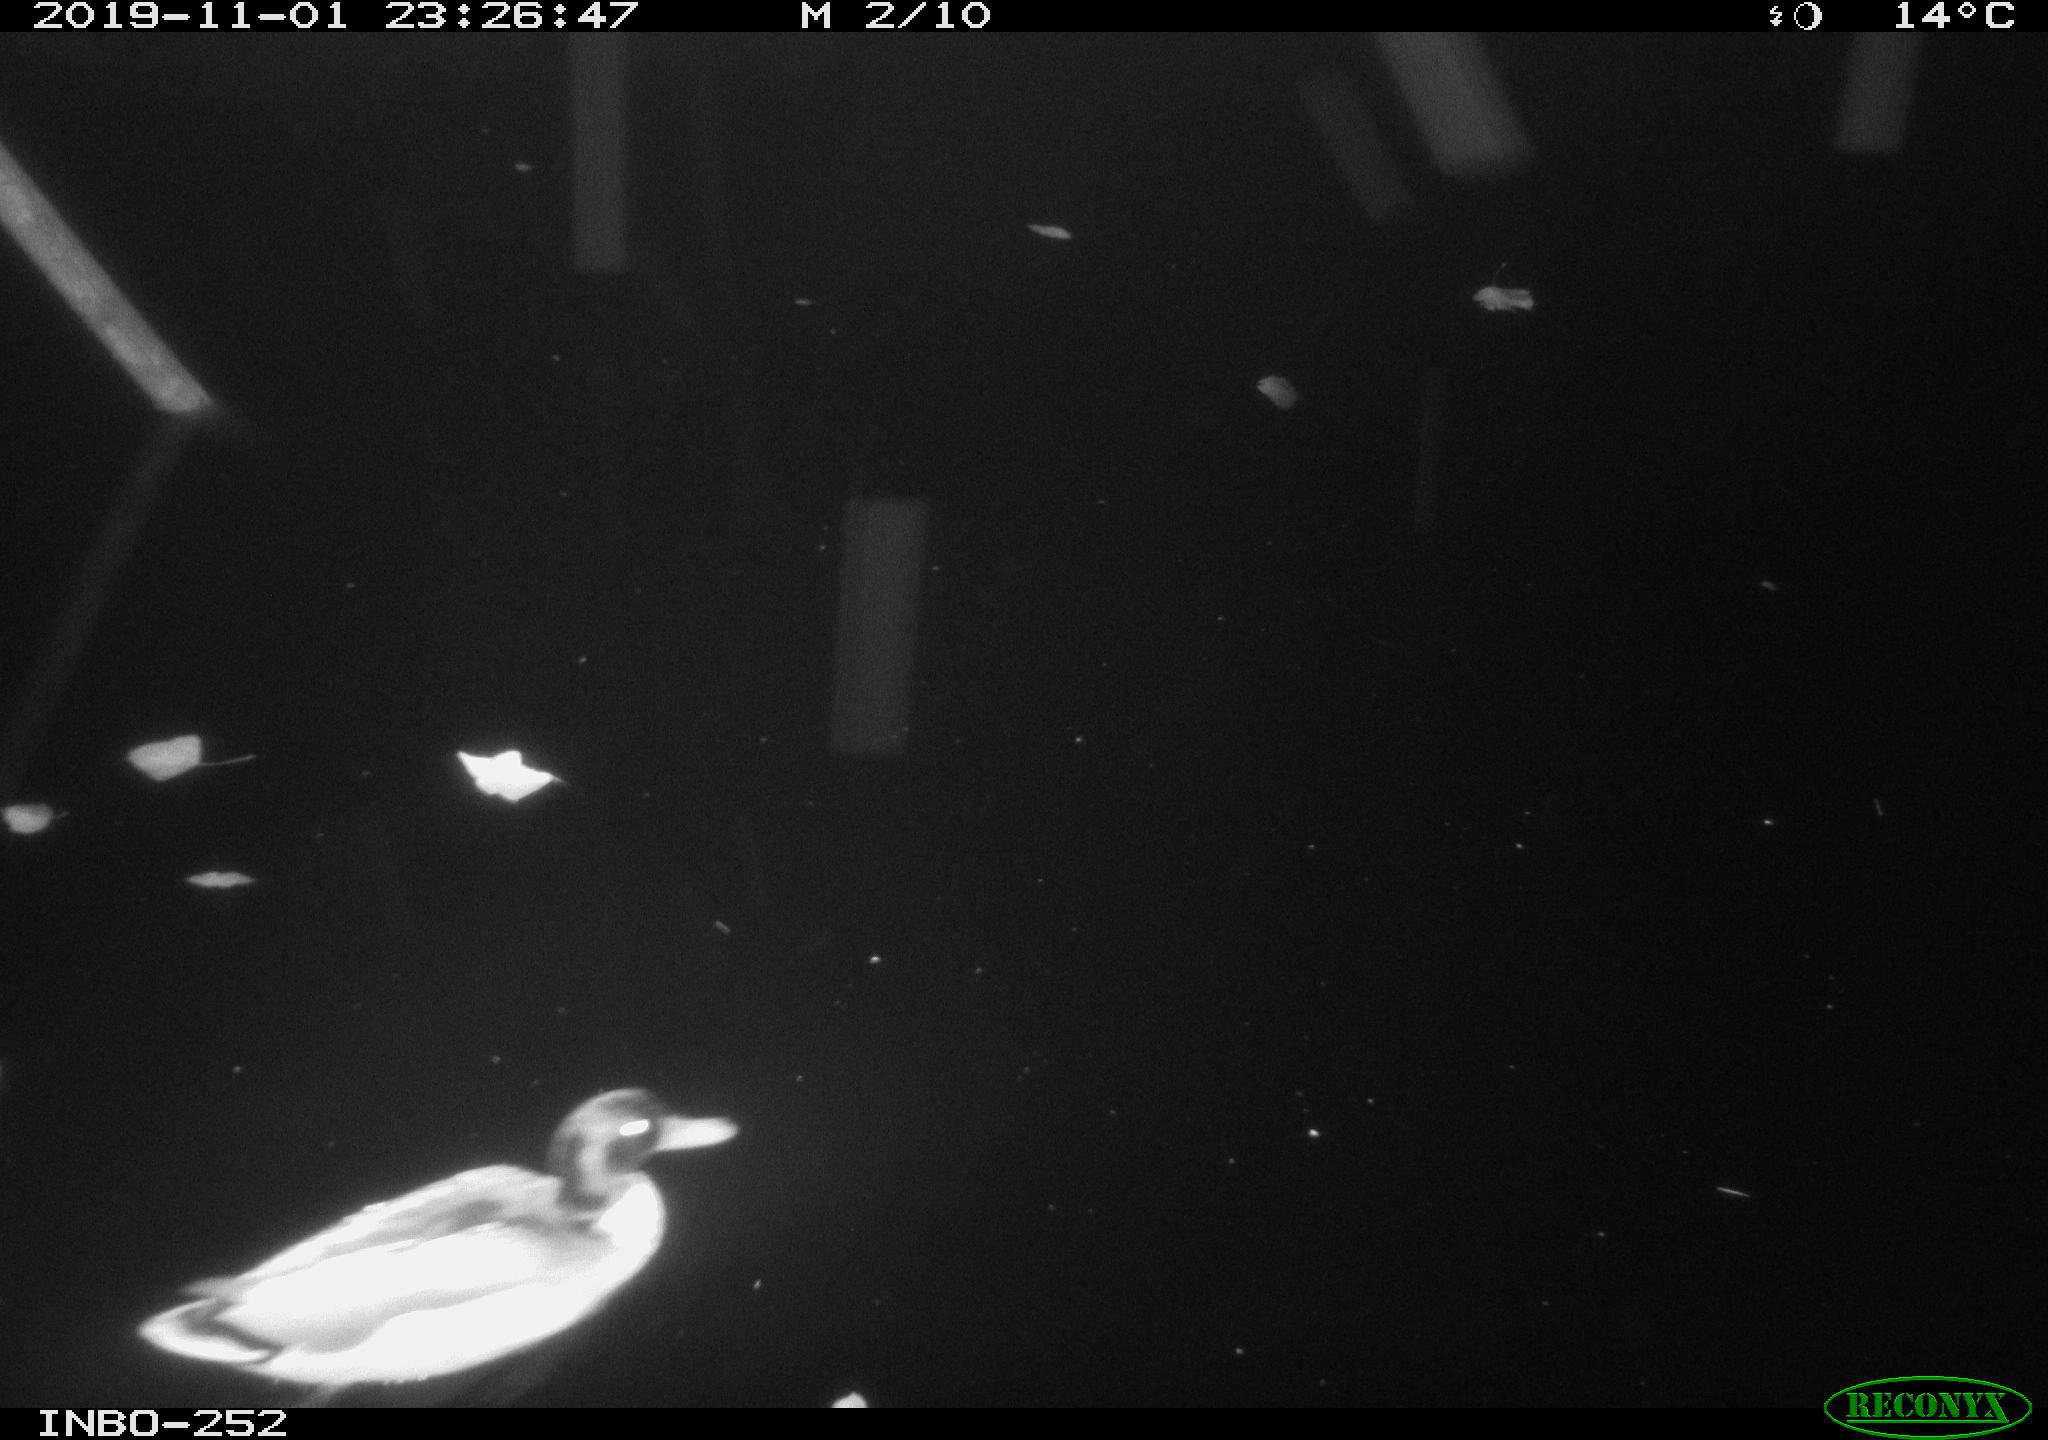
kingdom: Animalia
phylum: Chordata
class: Aves
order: Anseriformes
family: Anatidae
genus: Anas
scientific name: Anas platyrhynchos
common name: Mallard
